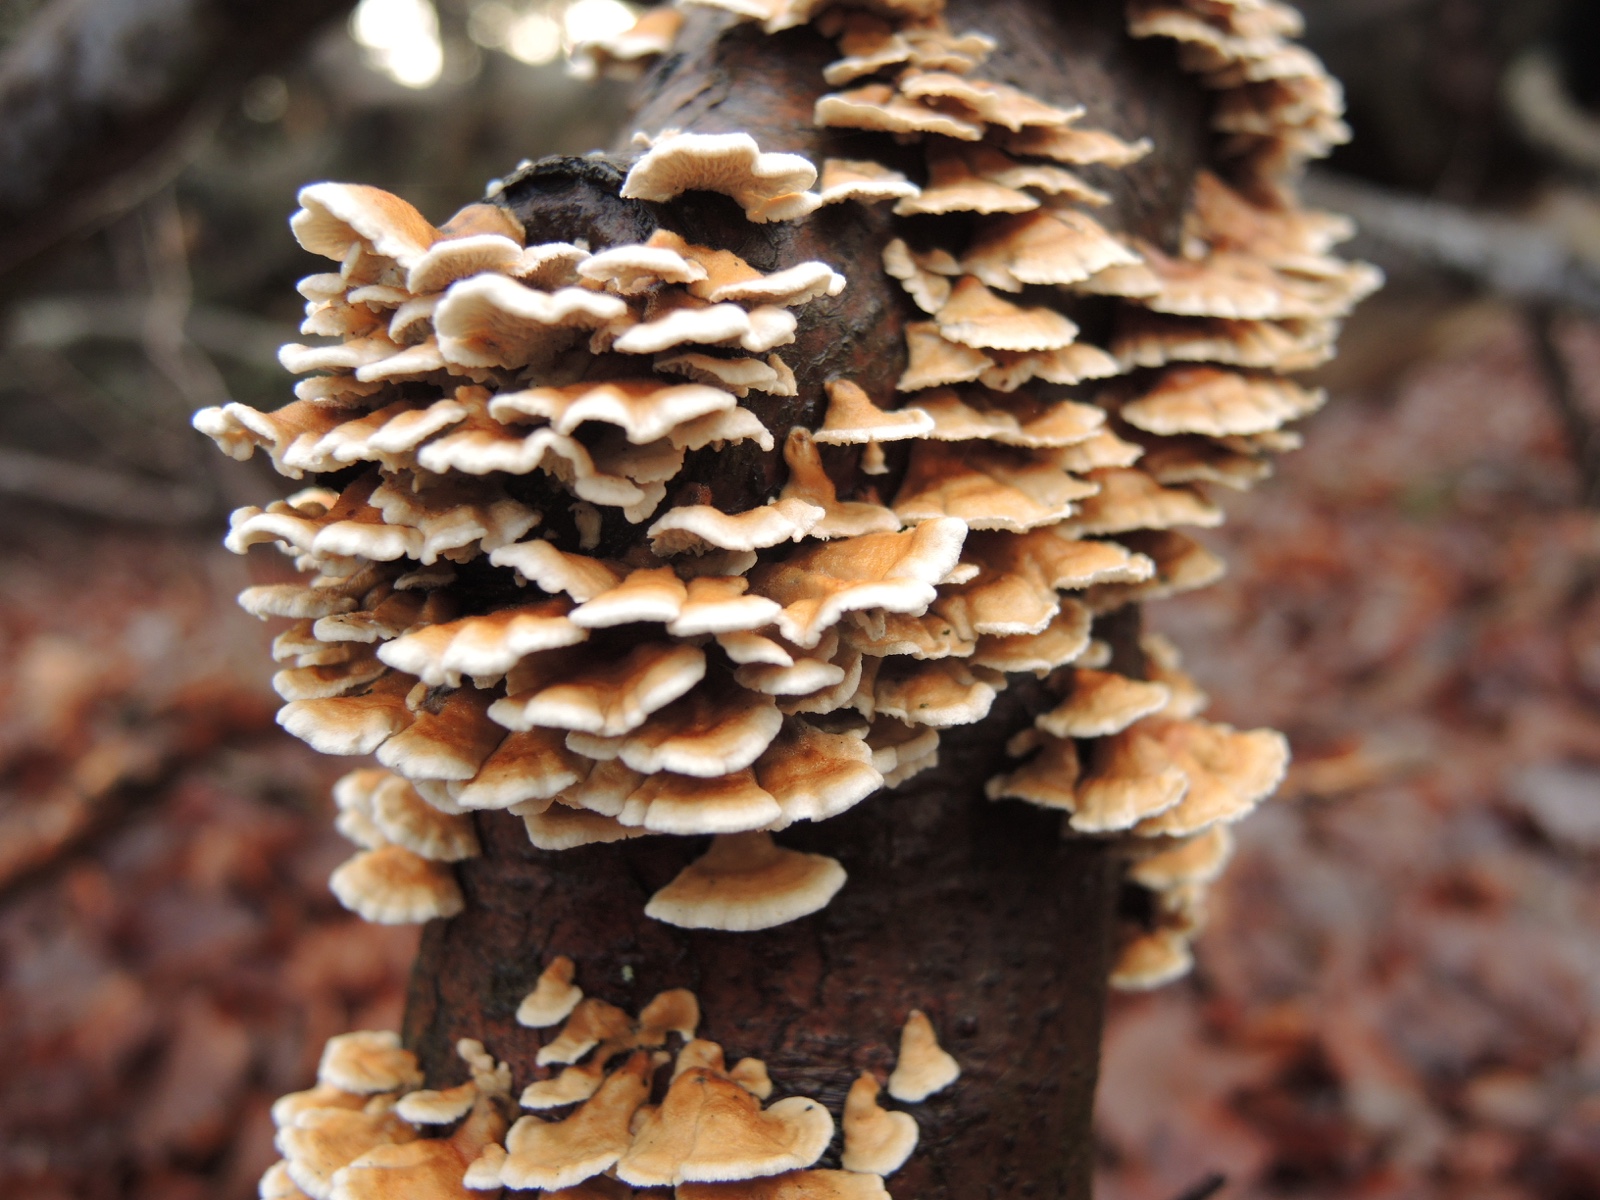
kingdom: Fungi
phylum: Basidiomycota
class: Agaricomycetes
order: Amylocorticiales
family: Amylocorticiaceae
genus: Plicaturopsis
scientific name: Plicaturopsis crispa
